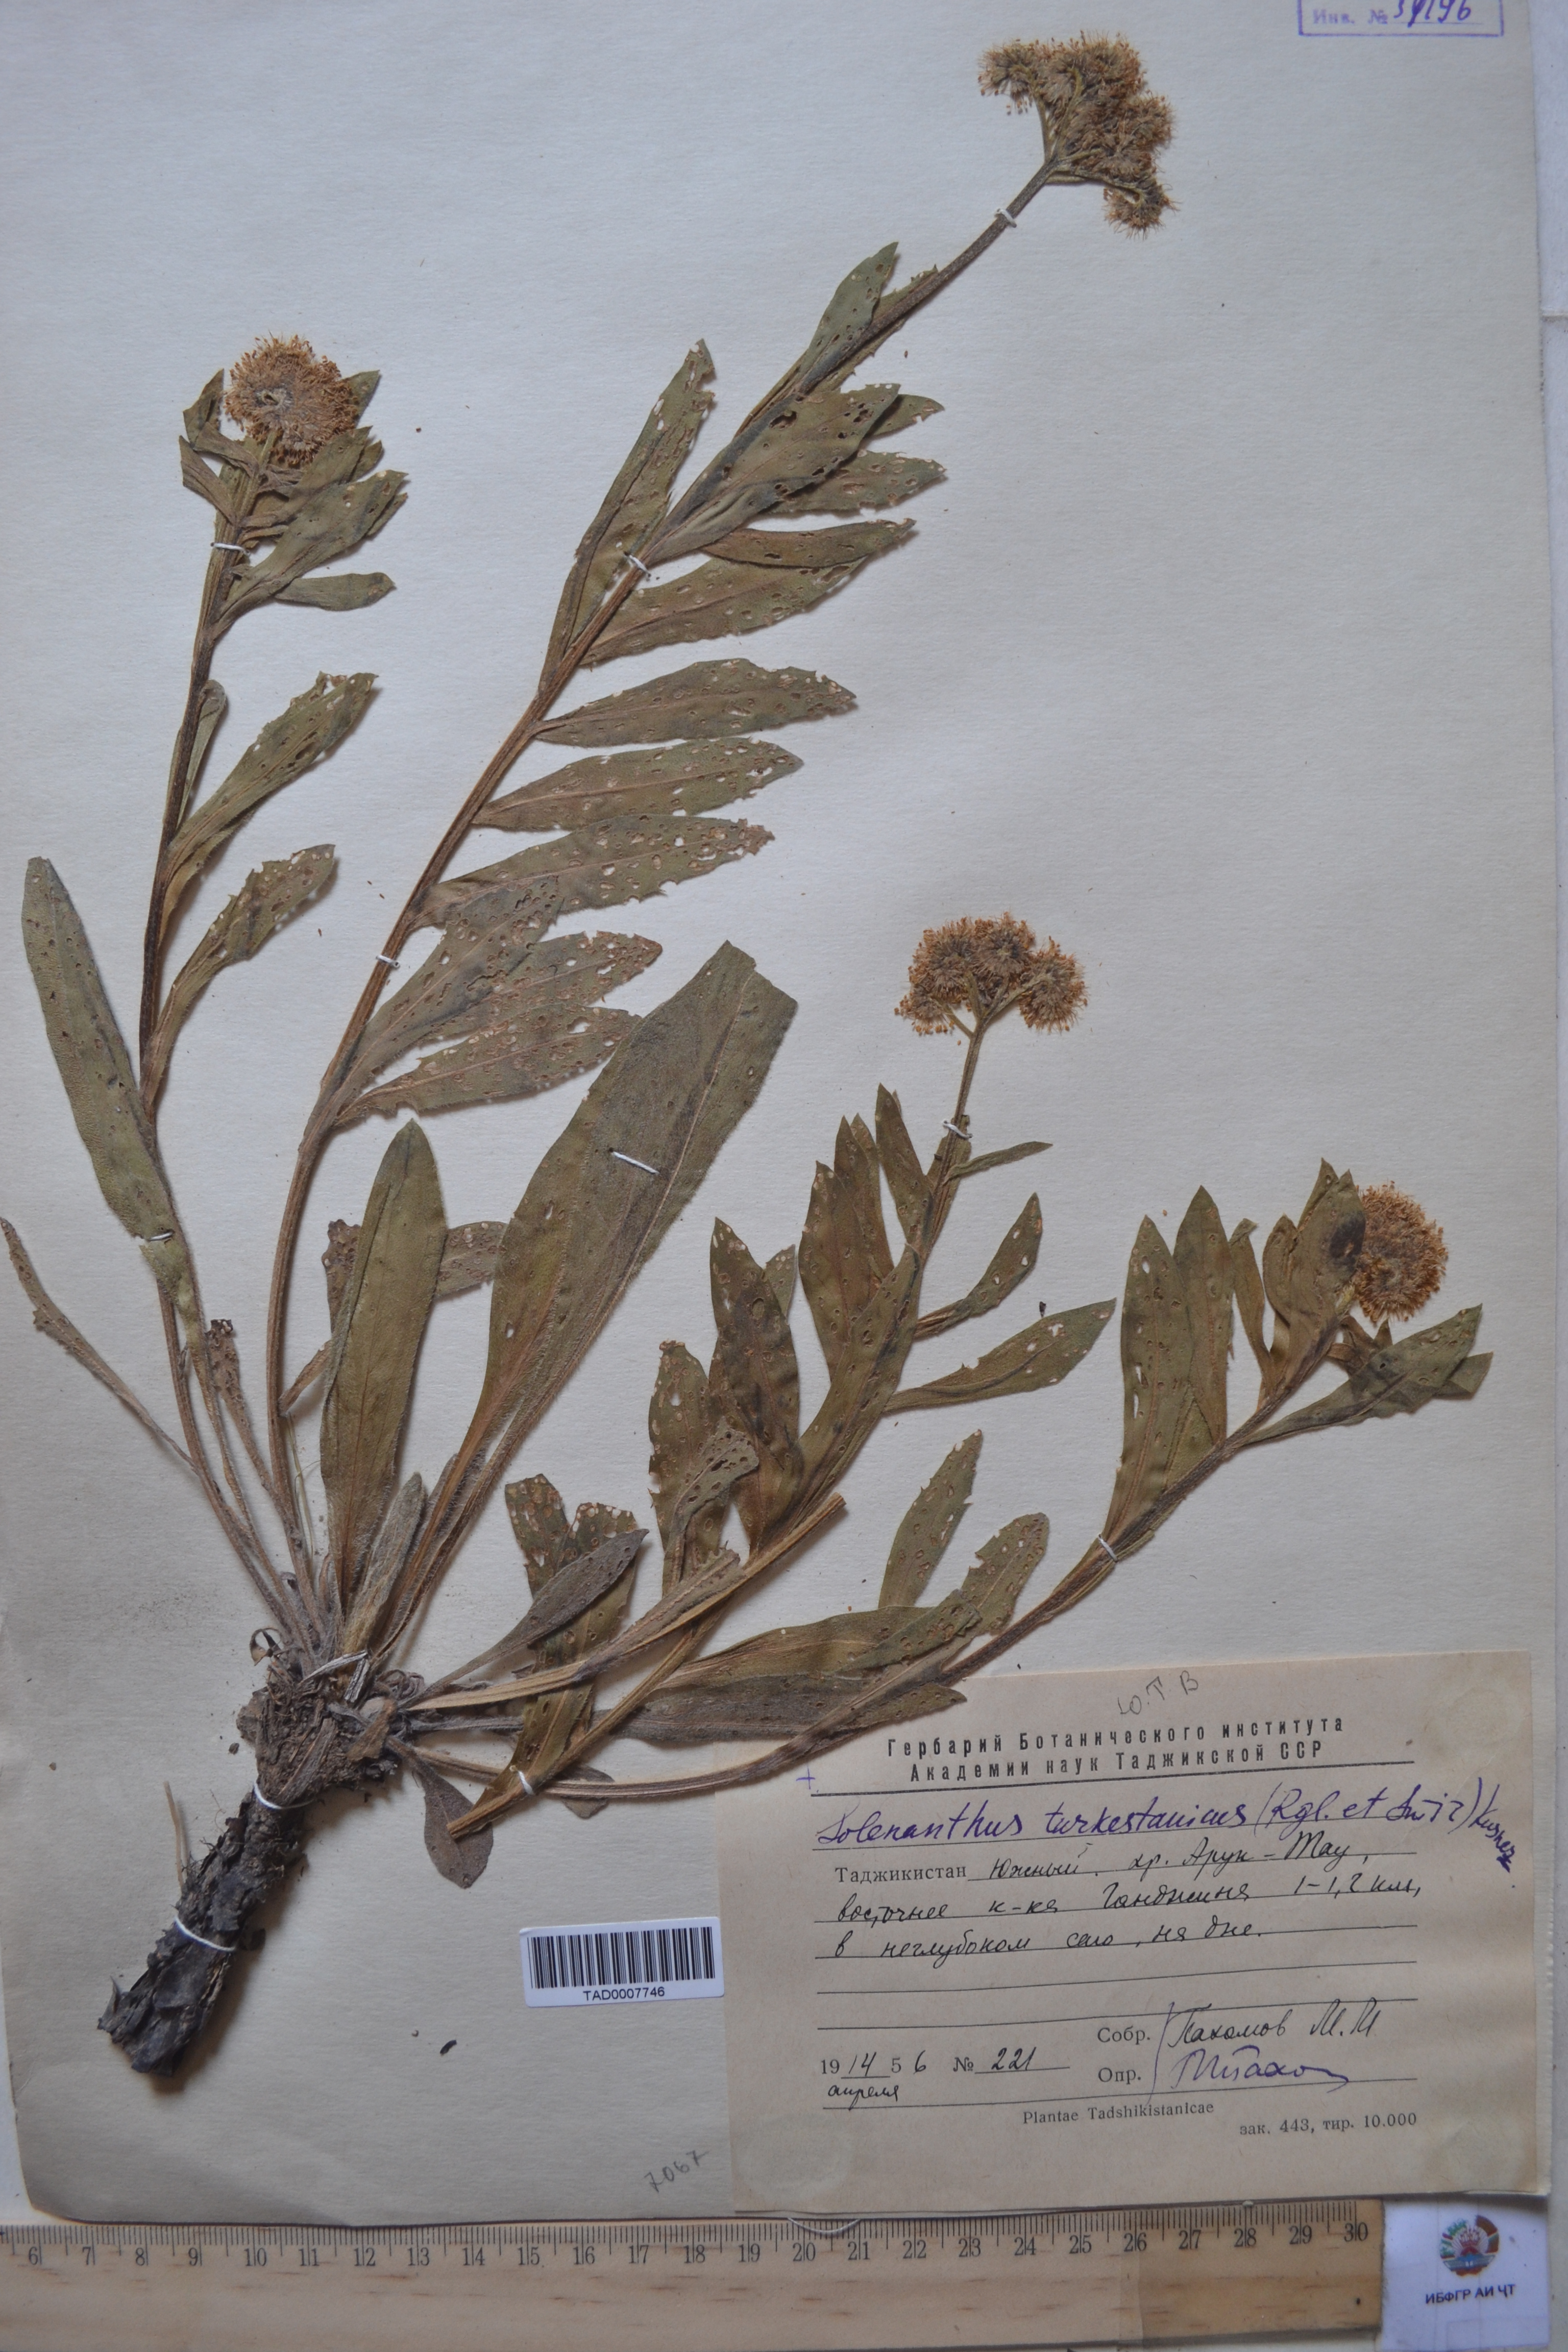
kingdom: Plantae
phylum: Tracheophyta
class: Magnoliopsida
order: Boraginales
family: Boraginaceae
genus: Solenanthus
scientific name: Solenanthus turkestanicus
